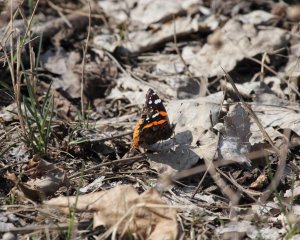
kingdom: Animalia
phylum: Arthropoda
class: Insecta
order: Lepidoptera
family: Nymphalidae
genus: Vanessa
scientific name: Vanessa atalanta
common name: Red Admiral
